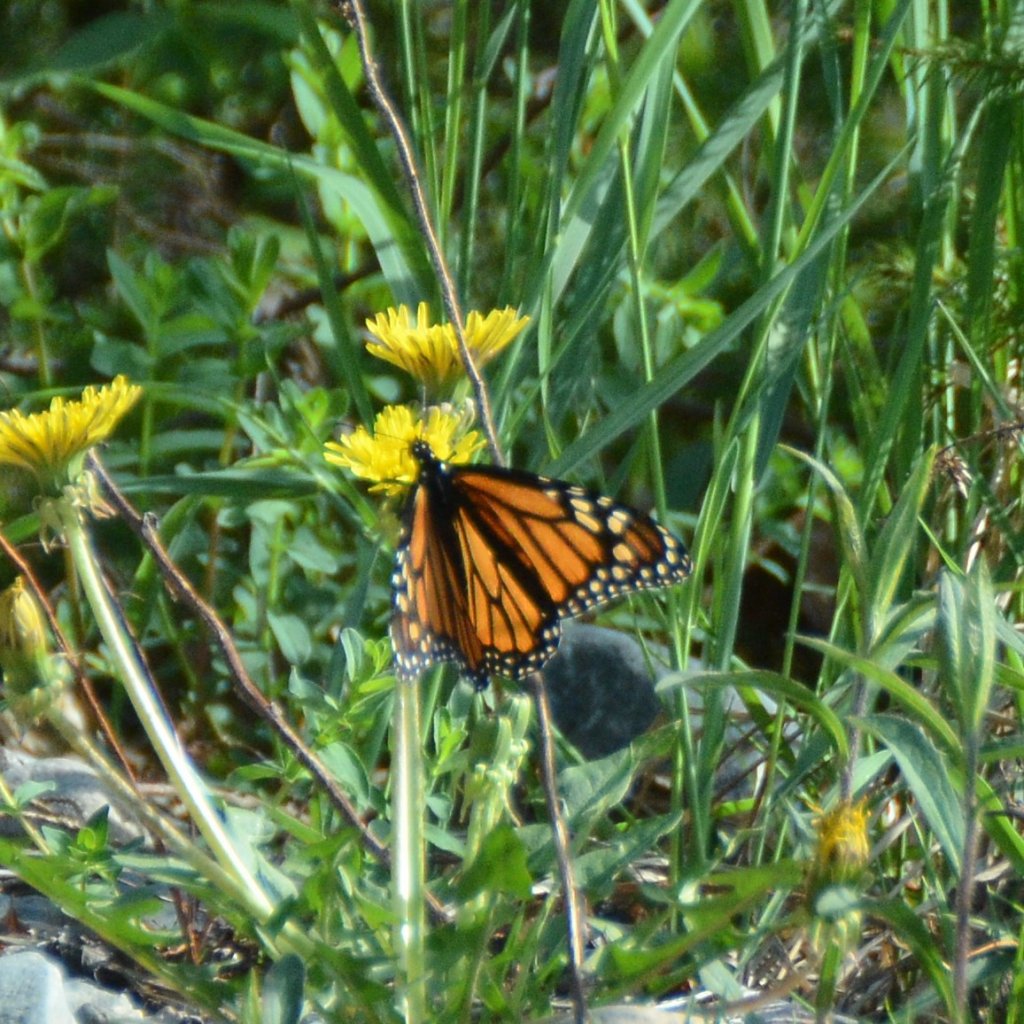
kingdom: Animalia
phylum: Arthropoda
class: Insecta
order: Lepidoptera
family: Nymphalidae
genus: Danaus
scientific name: Danaus plexippus
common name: Monarch
